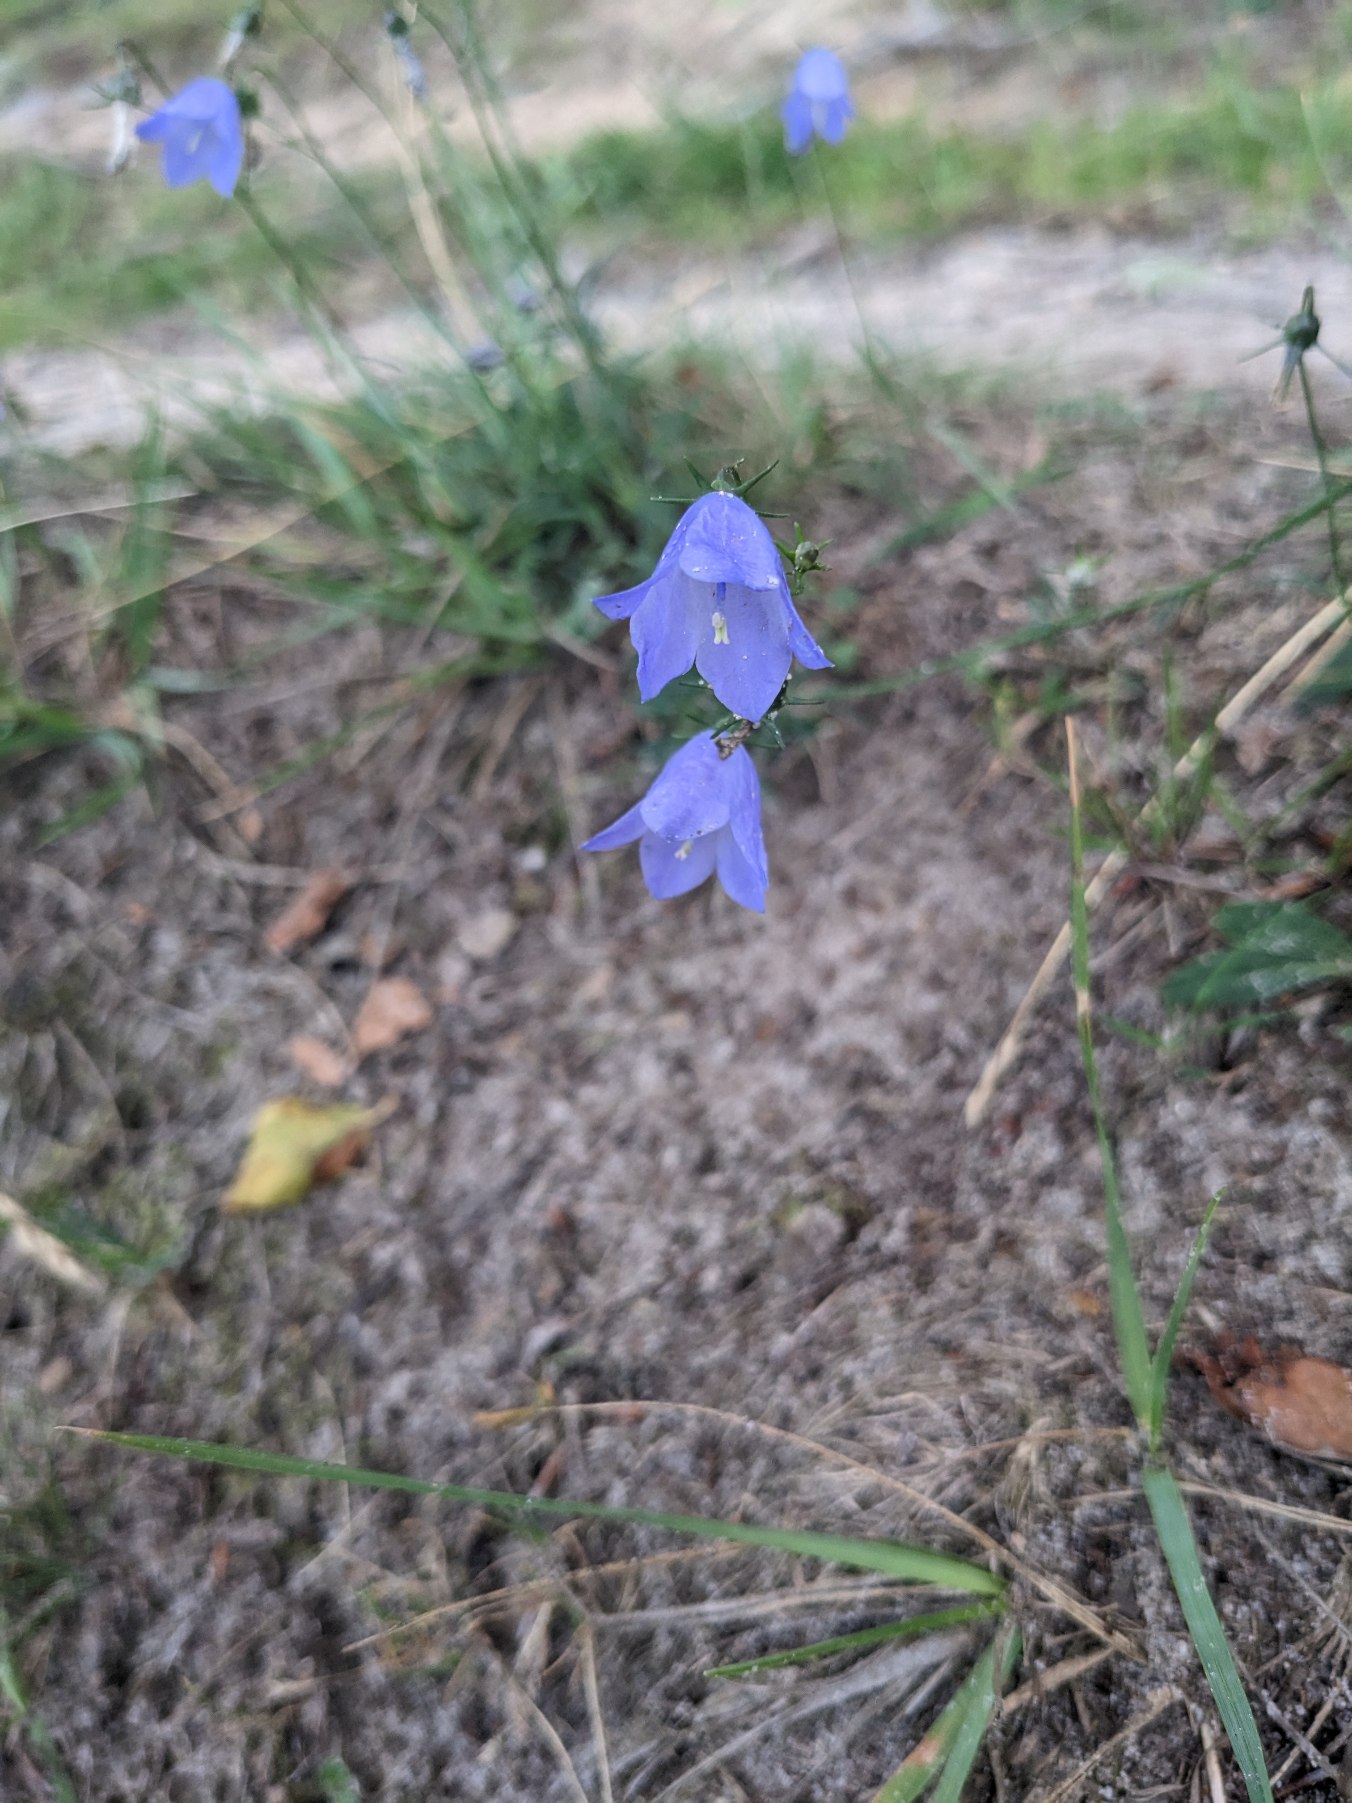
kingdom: Plantae
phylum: Tracheophyta
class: Magnoliopsida
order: Asterales
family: Campanulaceae
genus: Campanula
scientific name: Campanula rotundifolia
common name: Liden klokke
